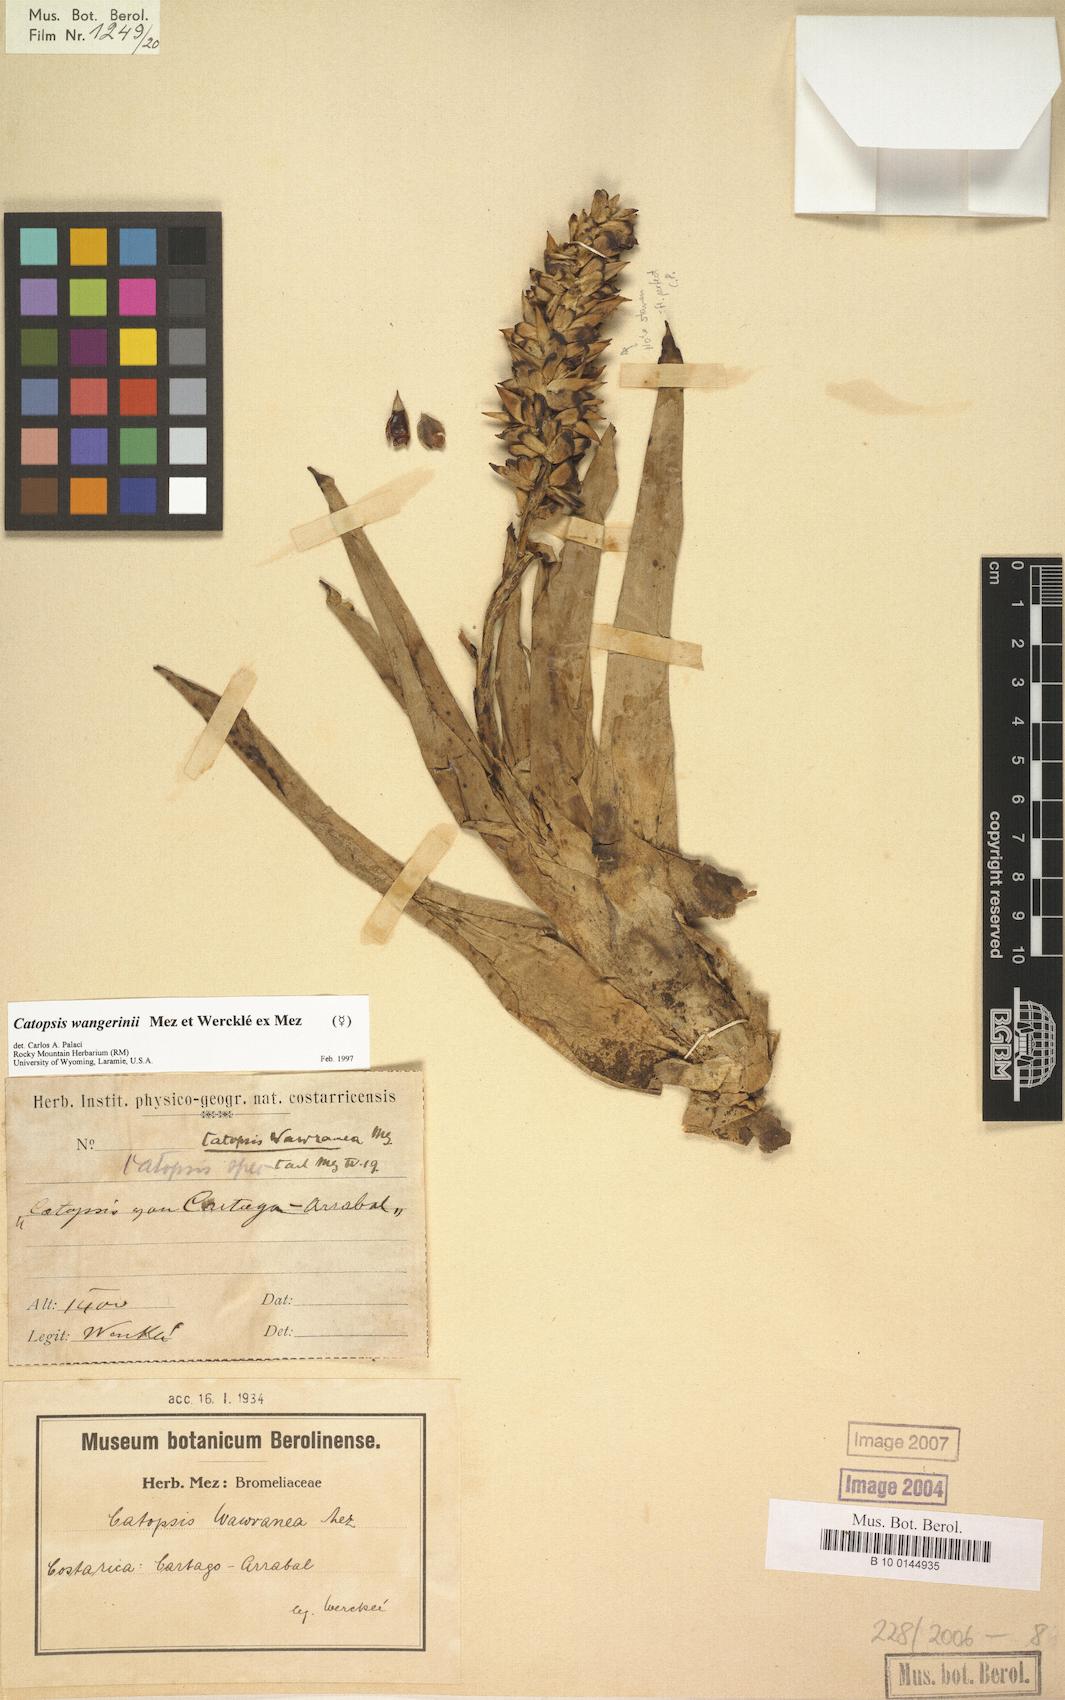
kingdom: Plantae
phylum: Tracheophyta
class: Liliopsida
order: Poales
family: Bromeliaceae
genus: Catopsis
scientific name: Catopsis wangerinii
